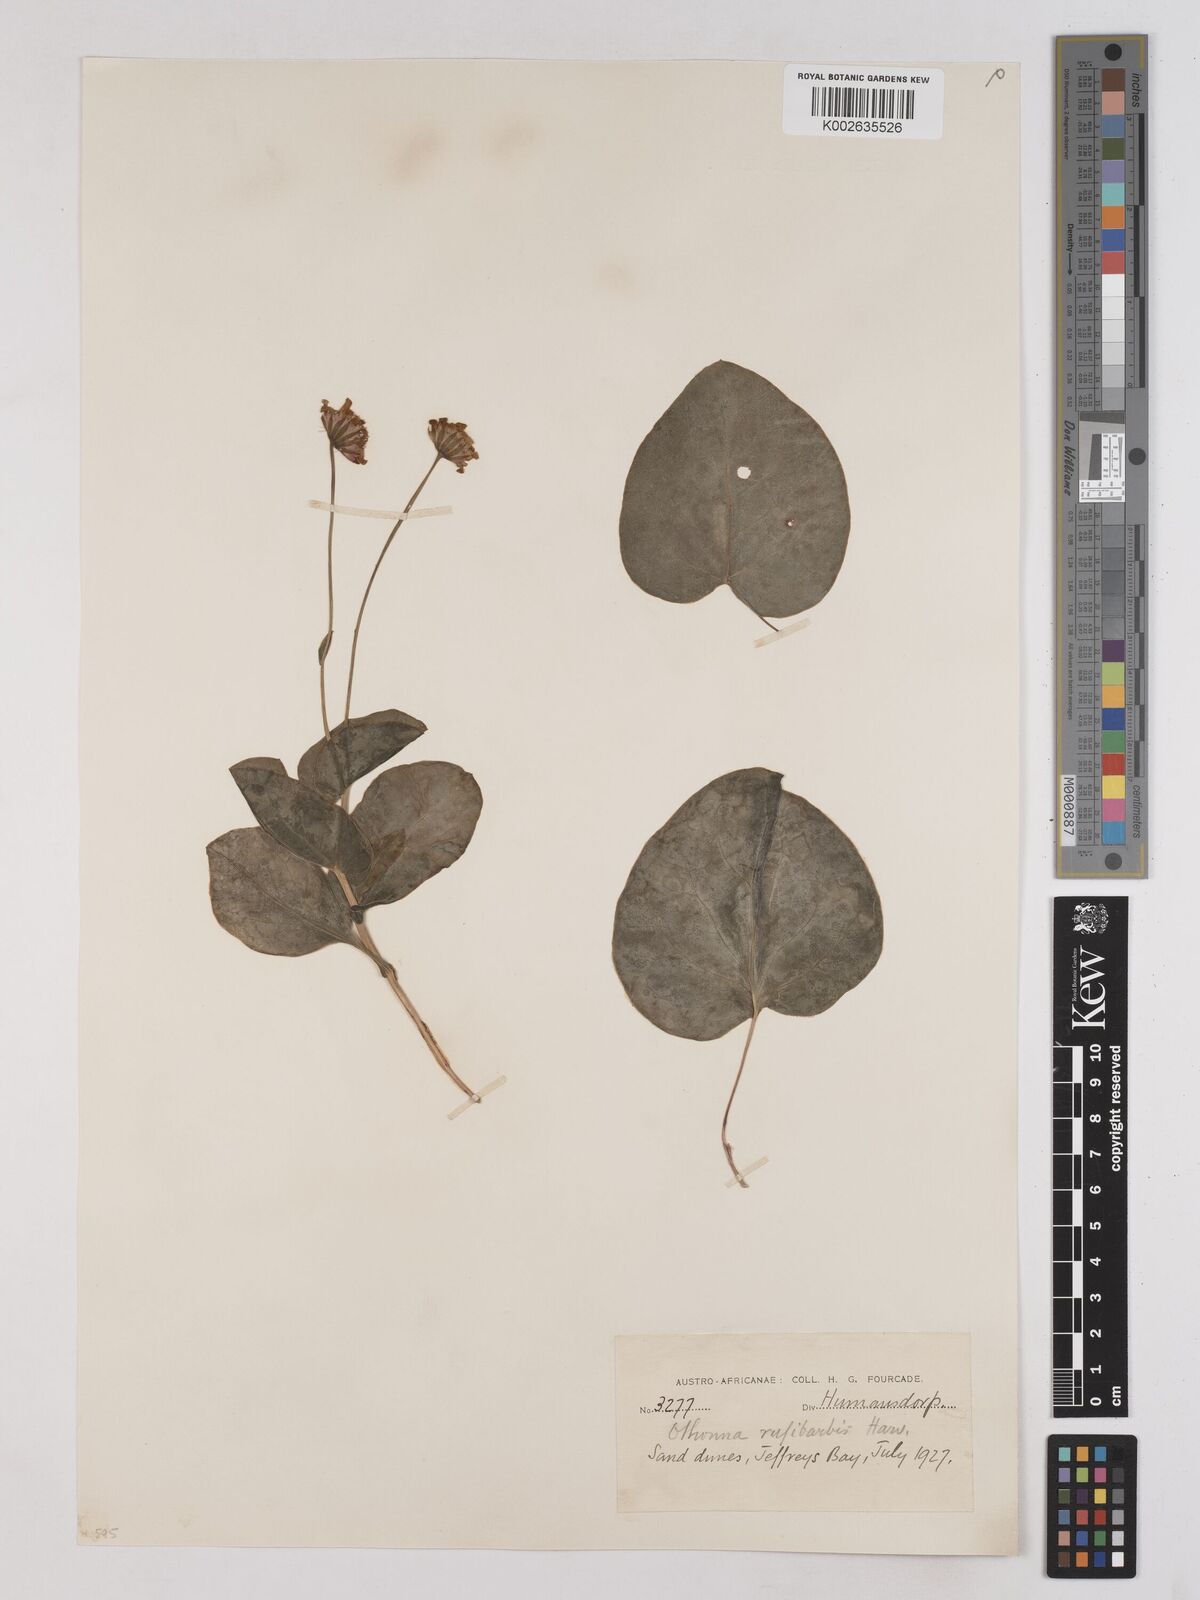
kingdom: Plantae
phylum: Tracheophyta
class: Magnoliopsida
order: Asterales
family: Asteraceae
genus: Othonna
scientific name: Othonna rufibarbis
